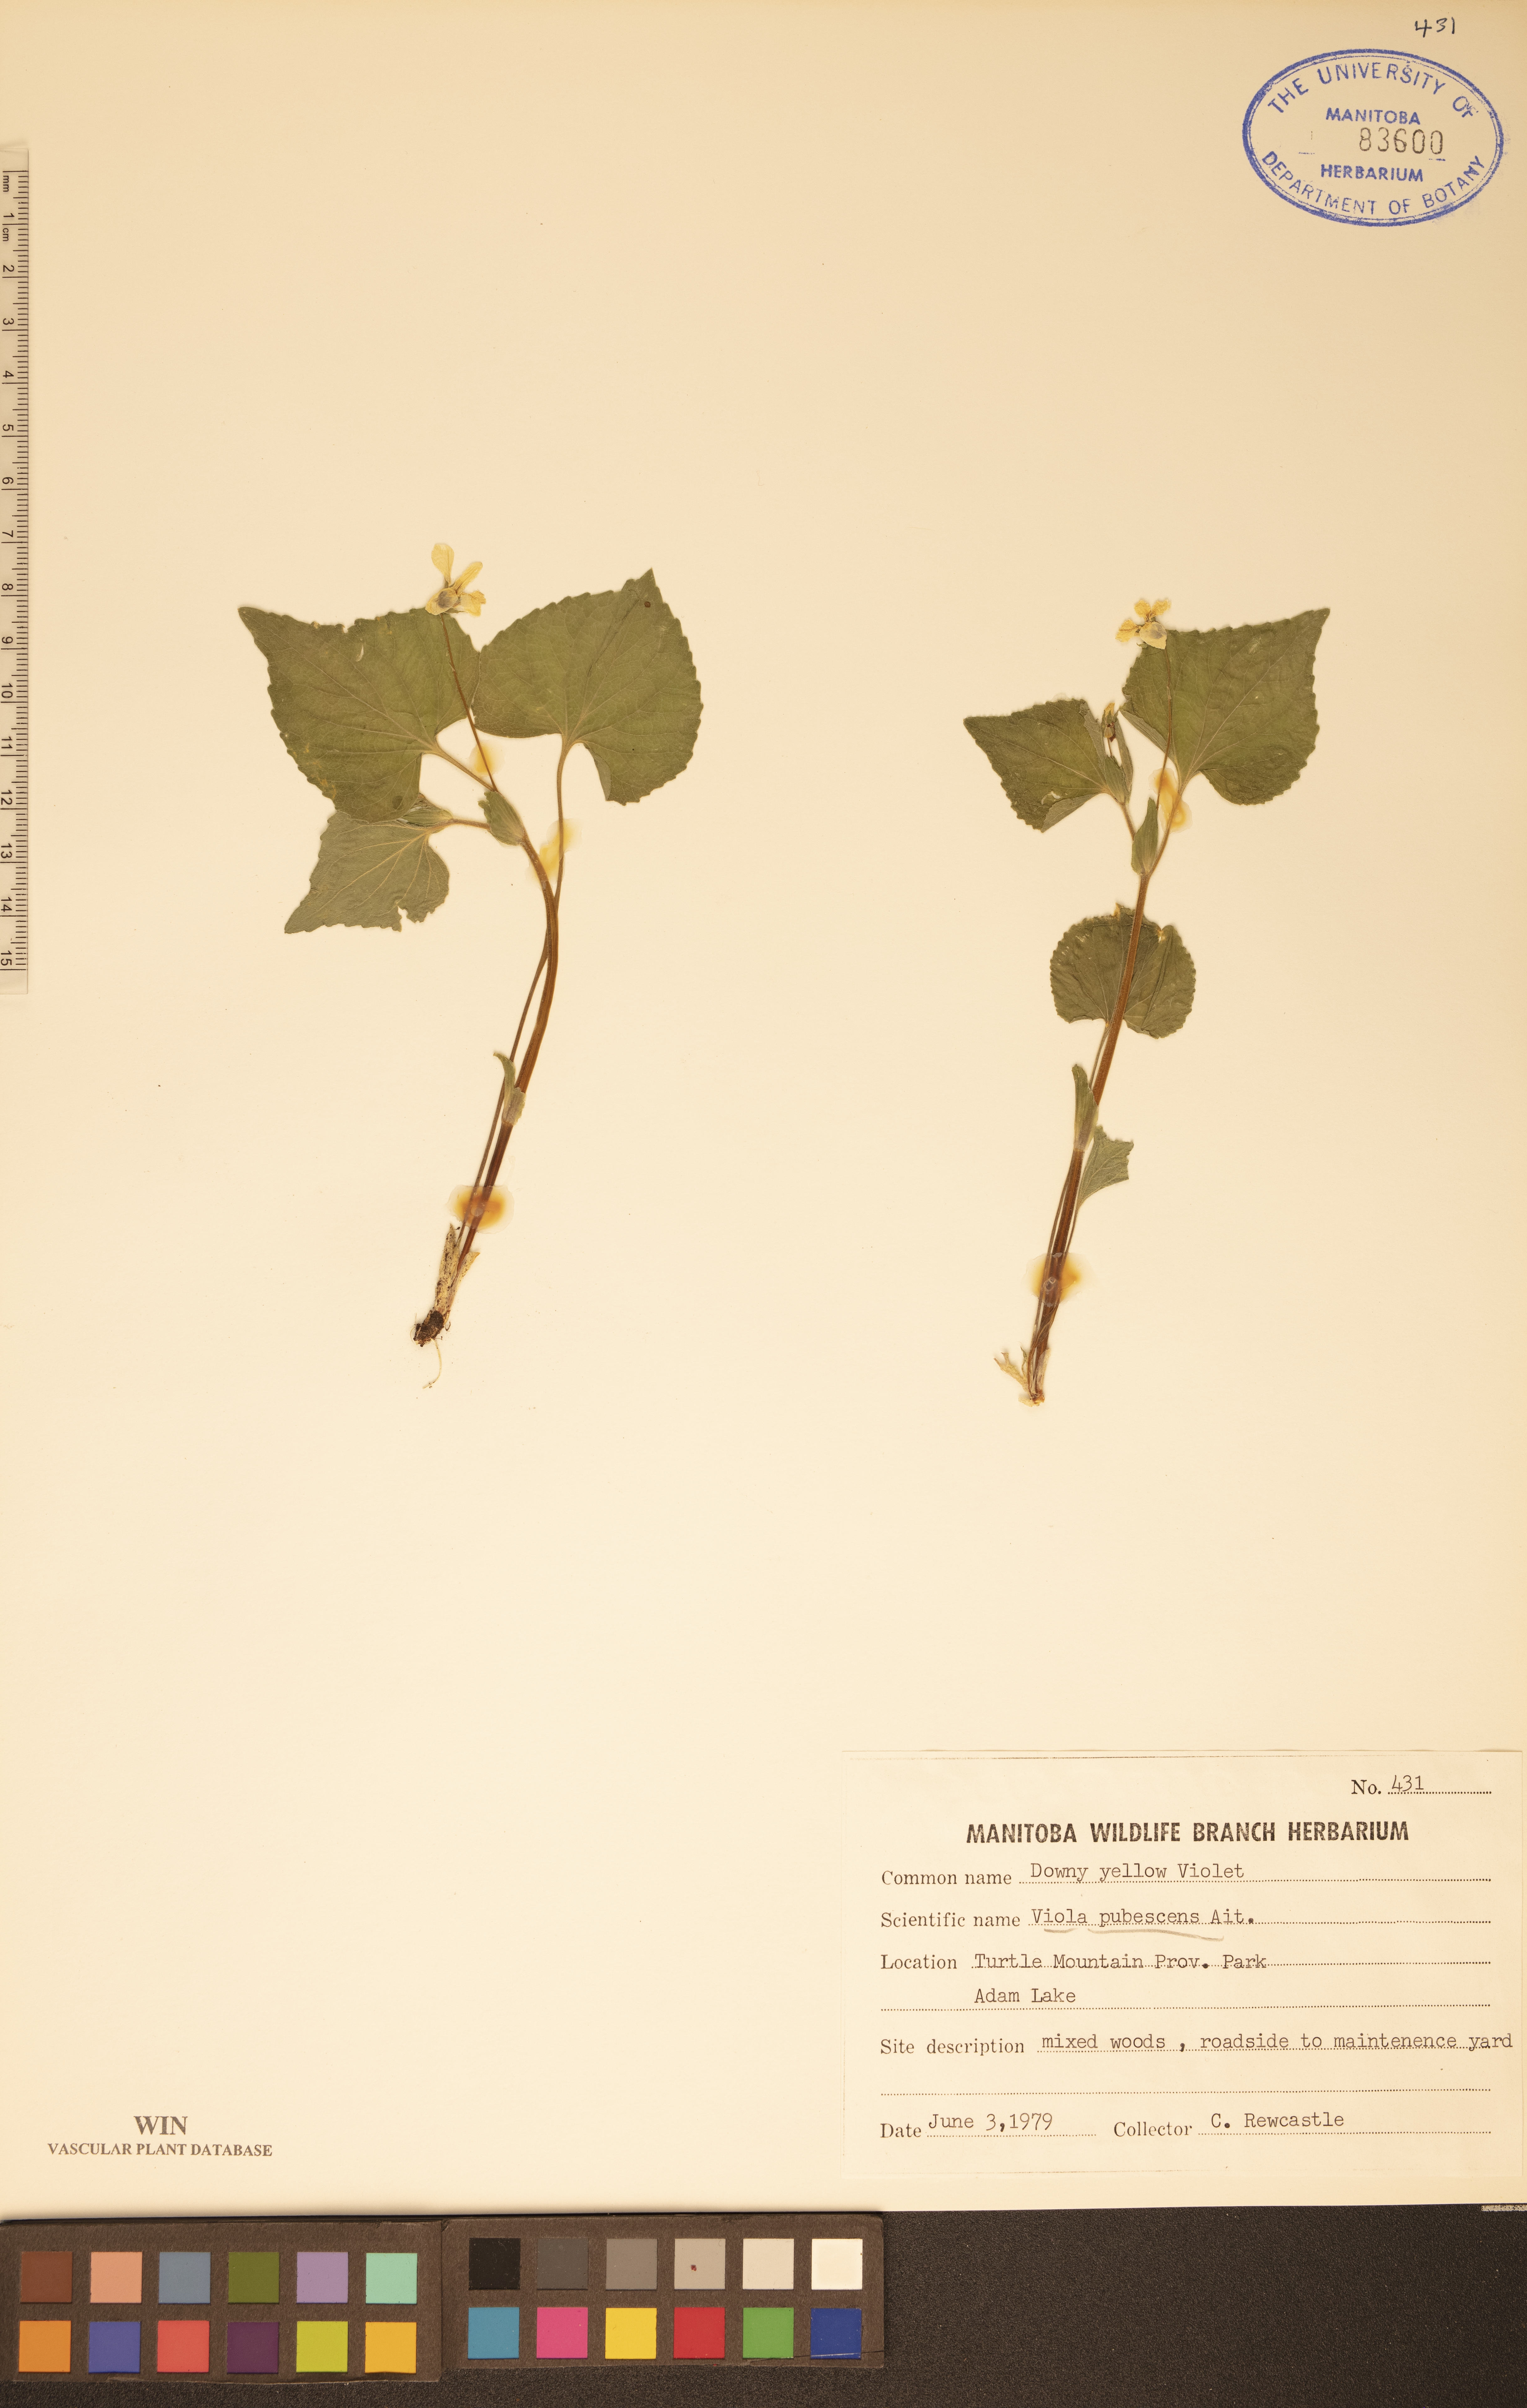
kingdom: Plantae
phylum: Tracheophyta
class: Magnoliopsida
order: Malpighiales
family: Violaceae
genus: Viola
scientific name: Viola pubescens
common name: Yellow forest violet
